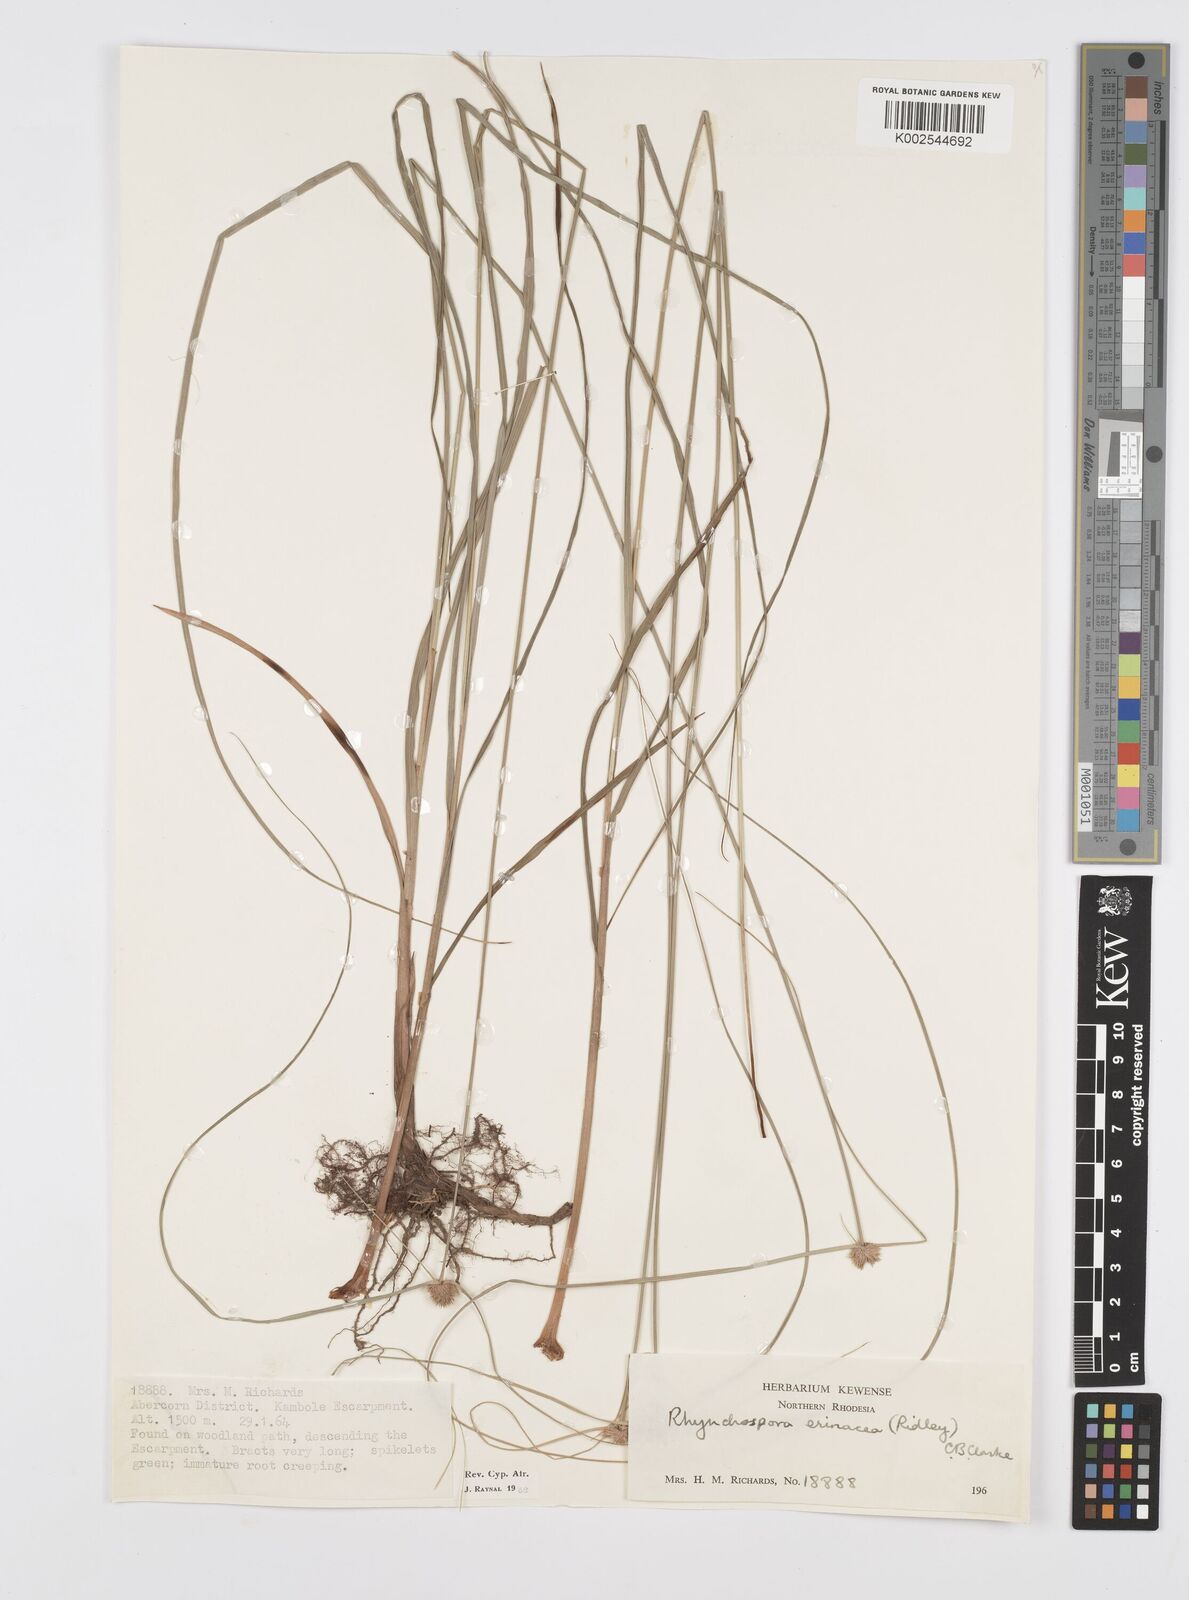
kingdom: Plantae
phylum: Tracheophyta
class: Liliopsida
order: Poales
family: Cyperaceae
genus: Cyperus
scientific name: Cyperus erinaceus
